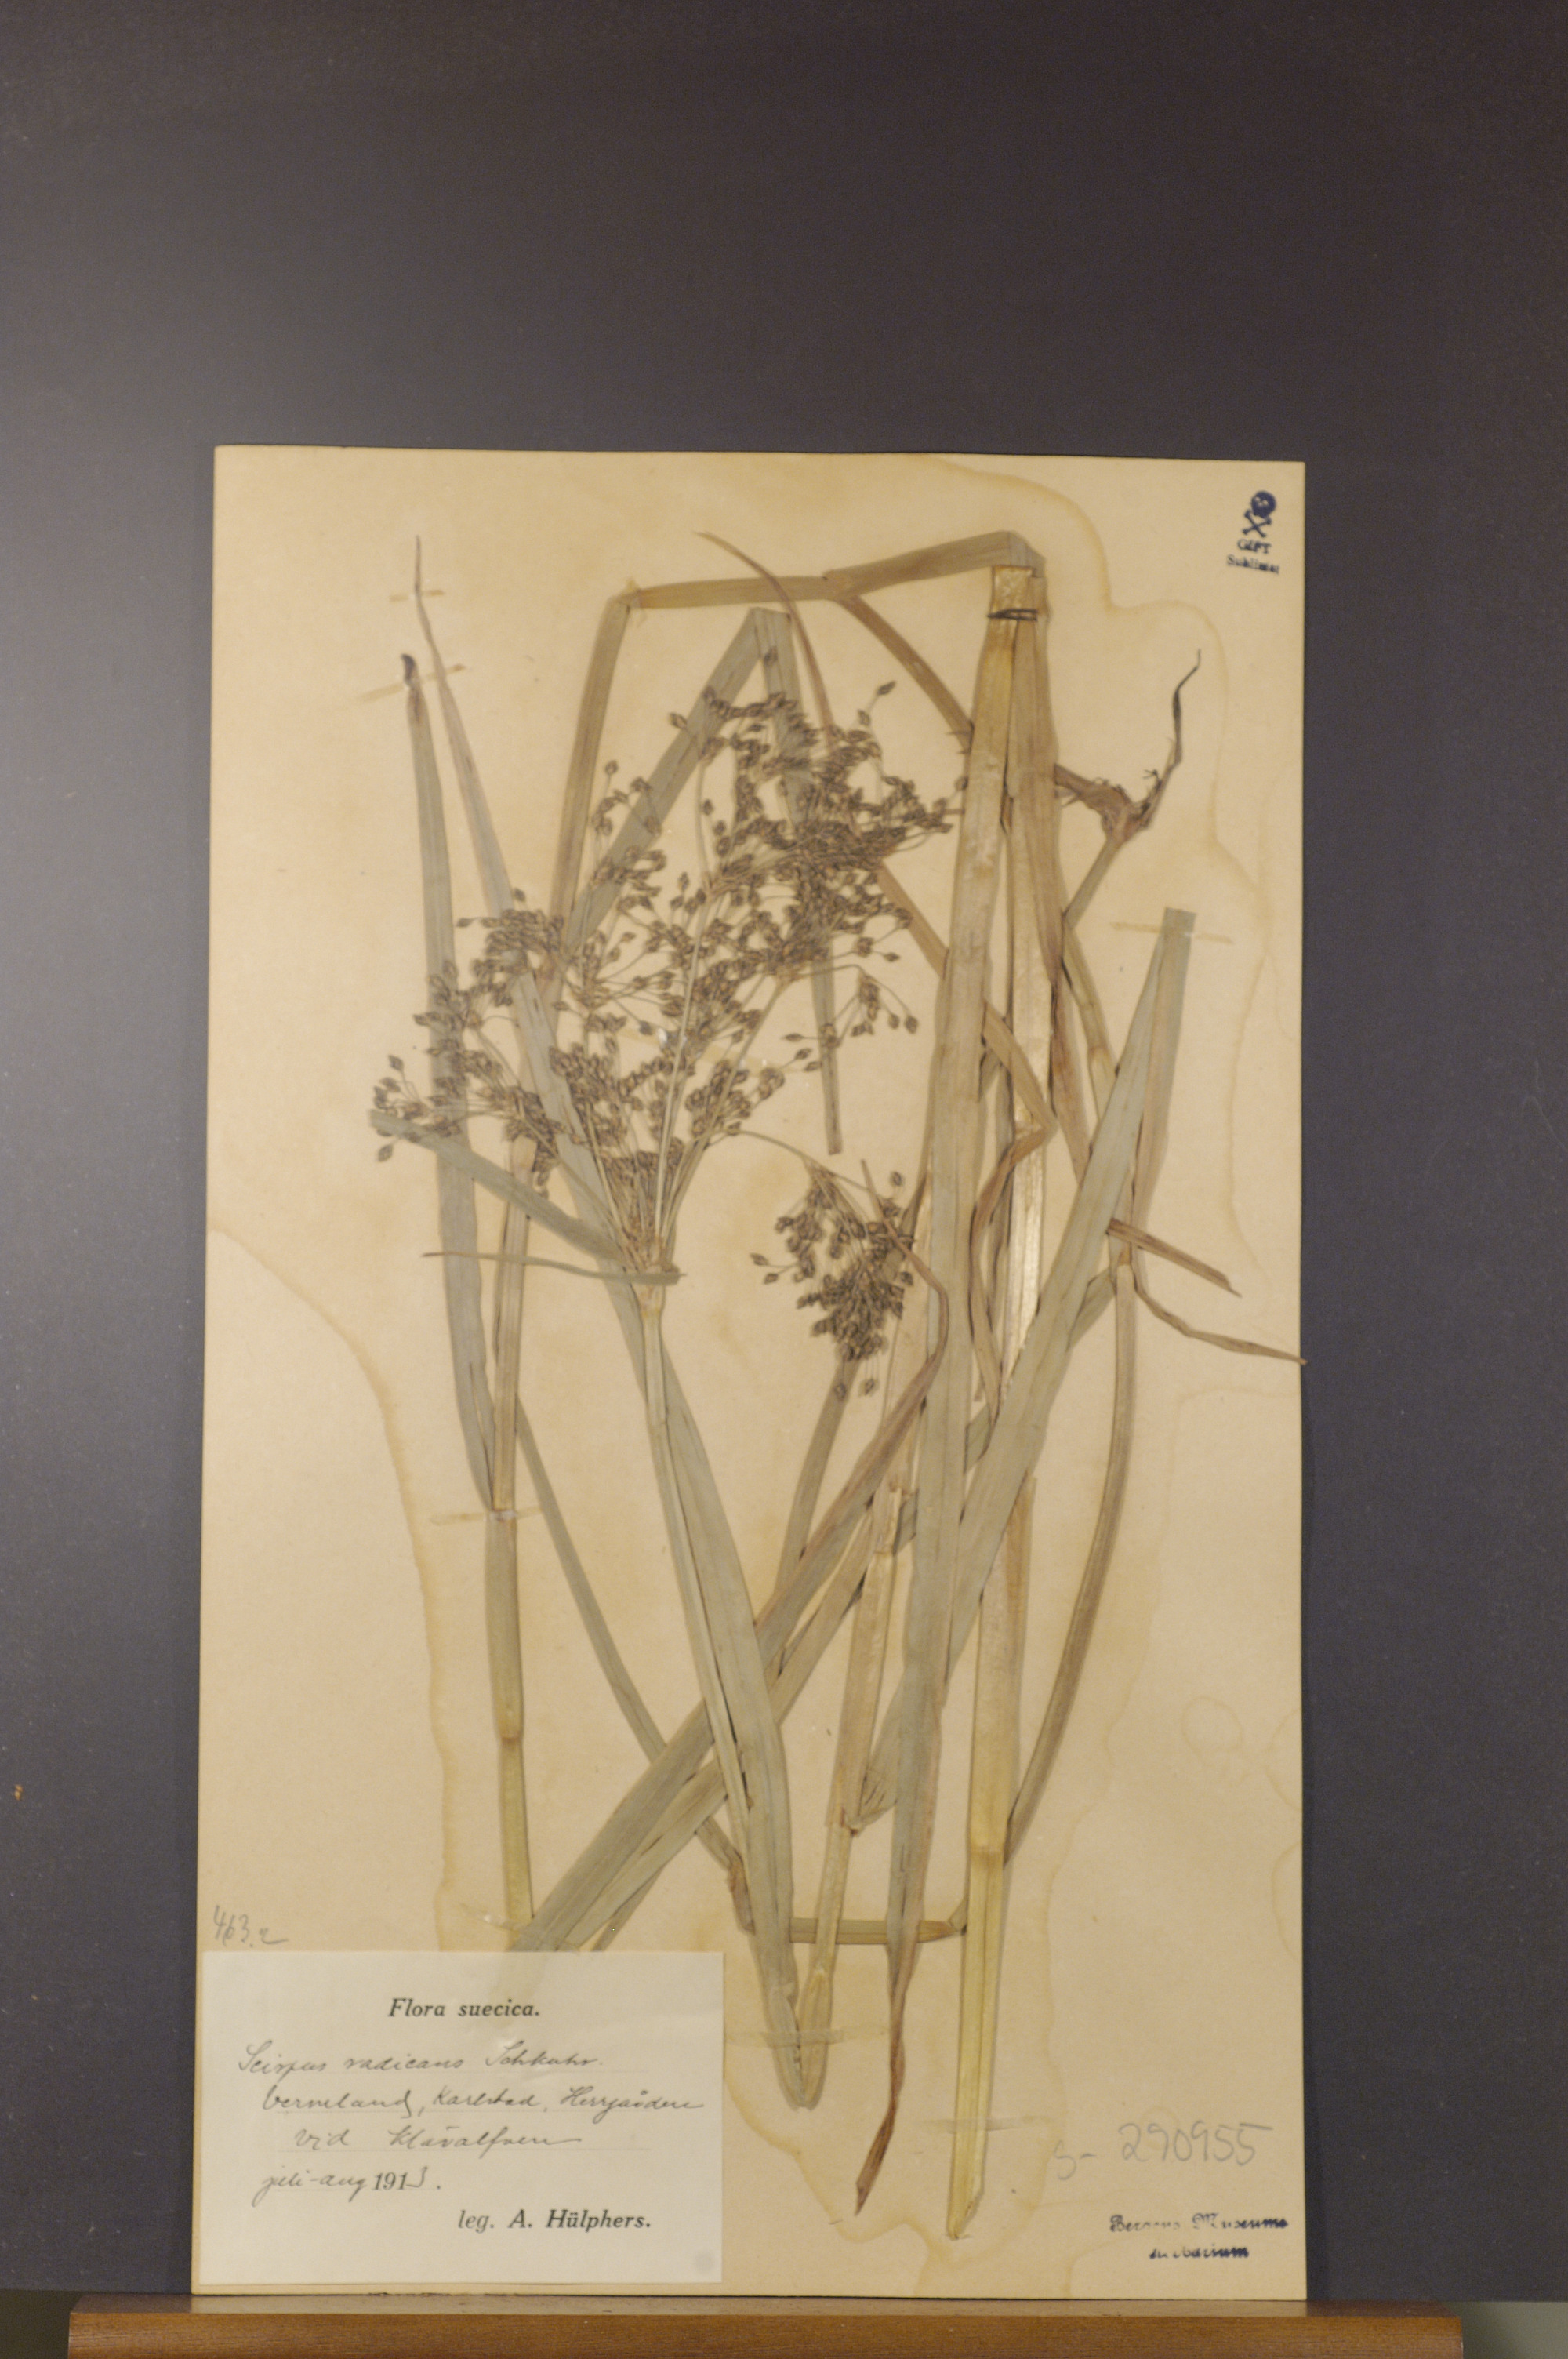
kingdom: Plantae
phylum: Tracheophyta
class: Liliopsida
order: Poales
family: Cyperaceae
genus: Scirpus
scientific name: Scirpus radicans
